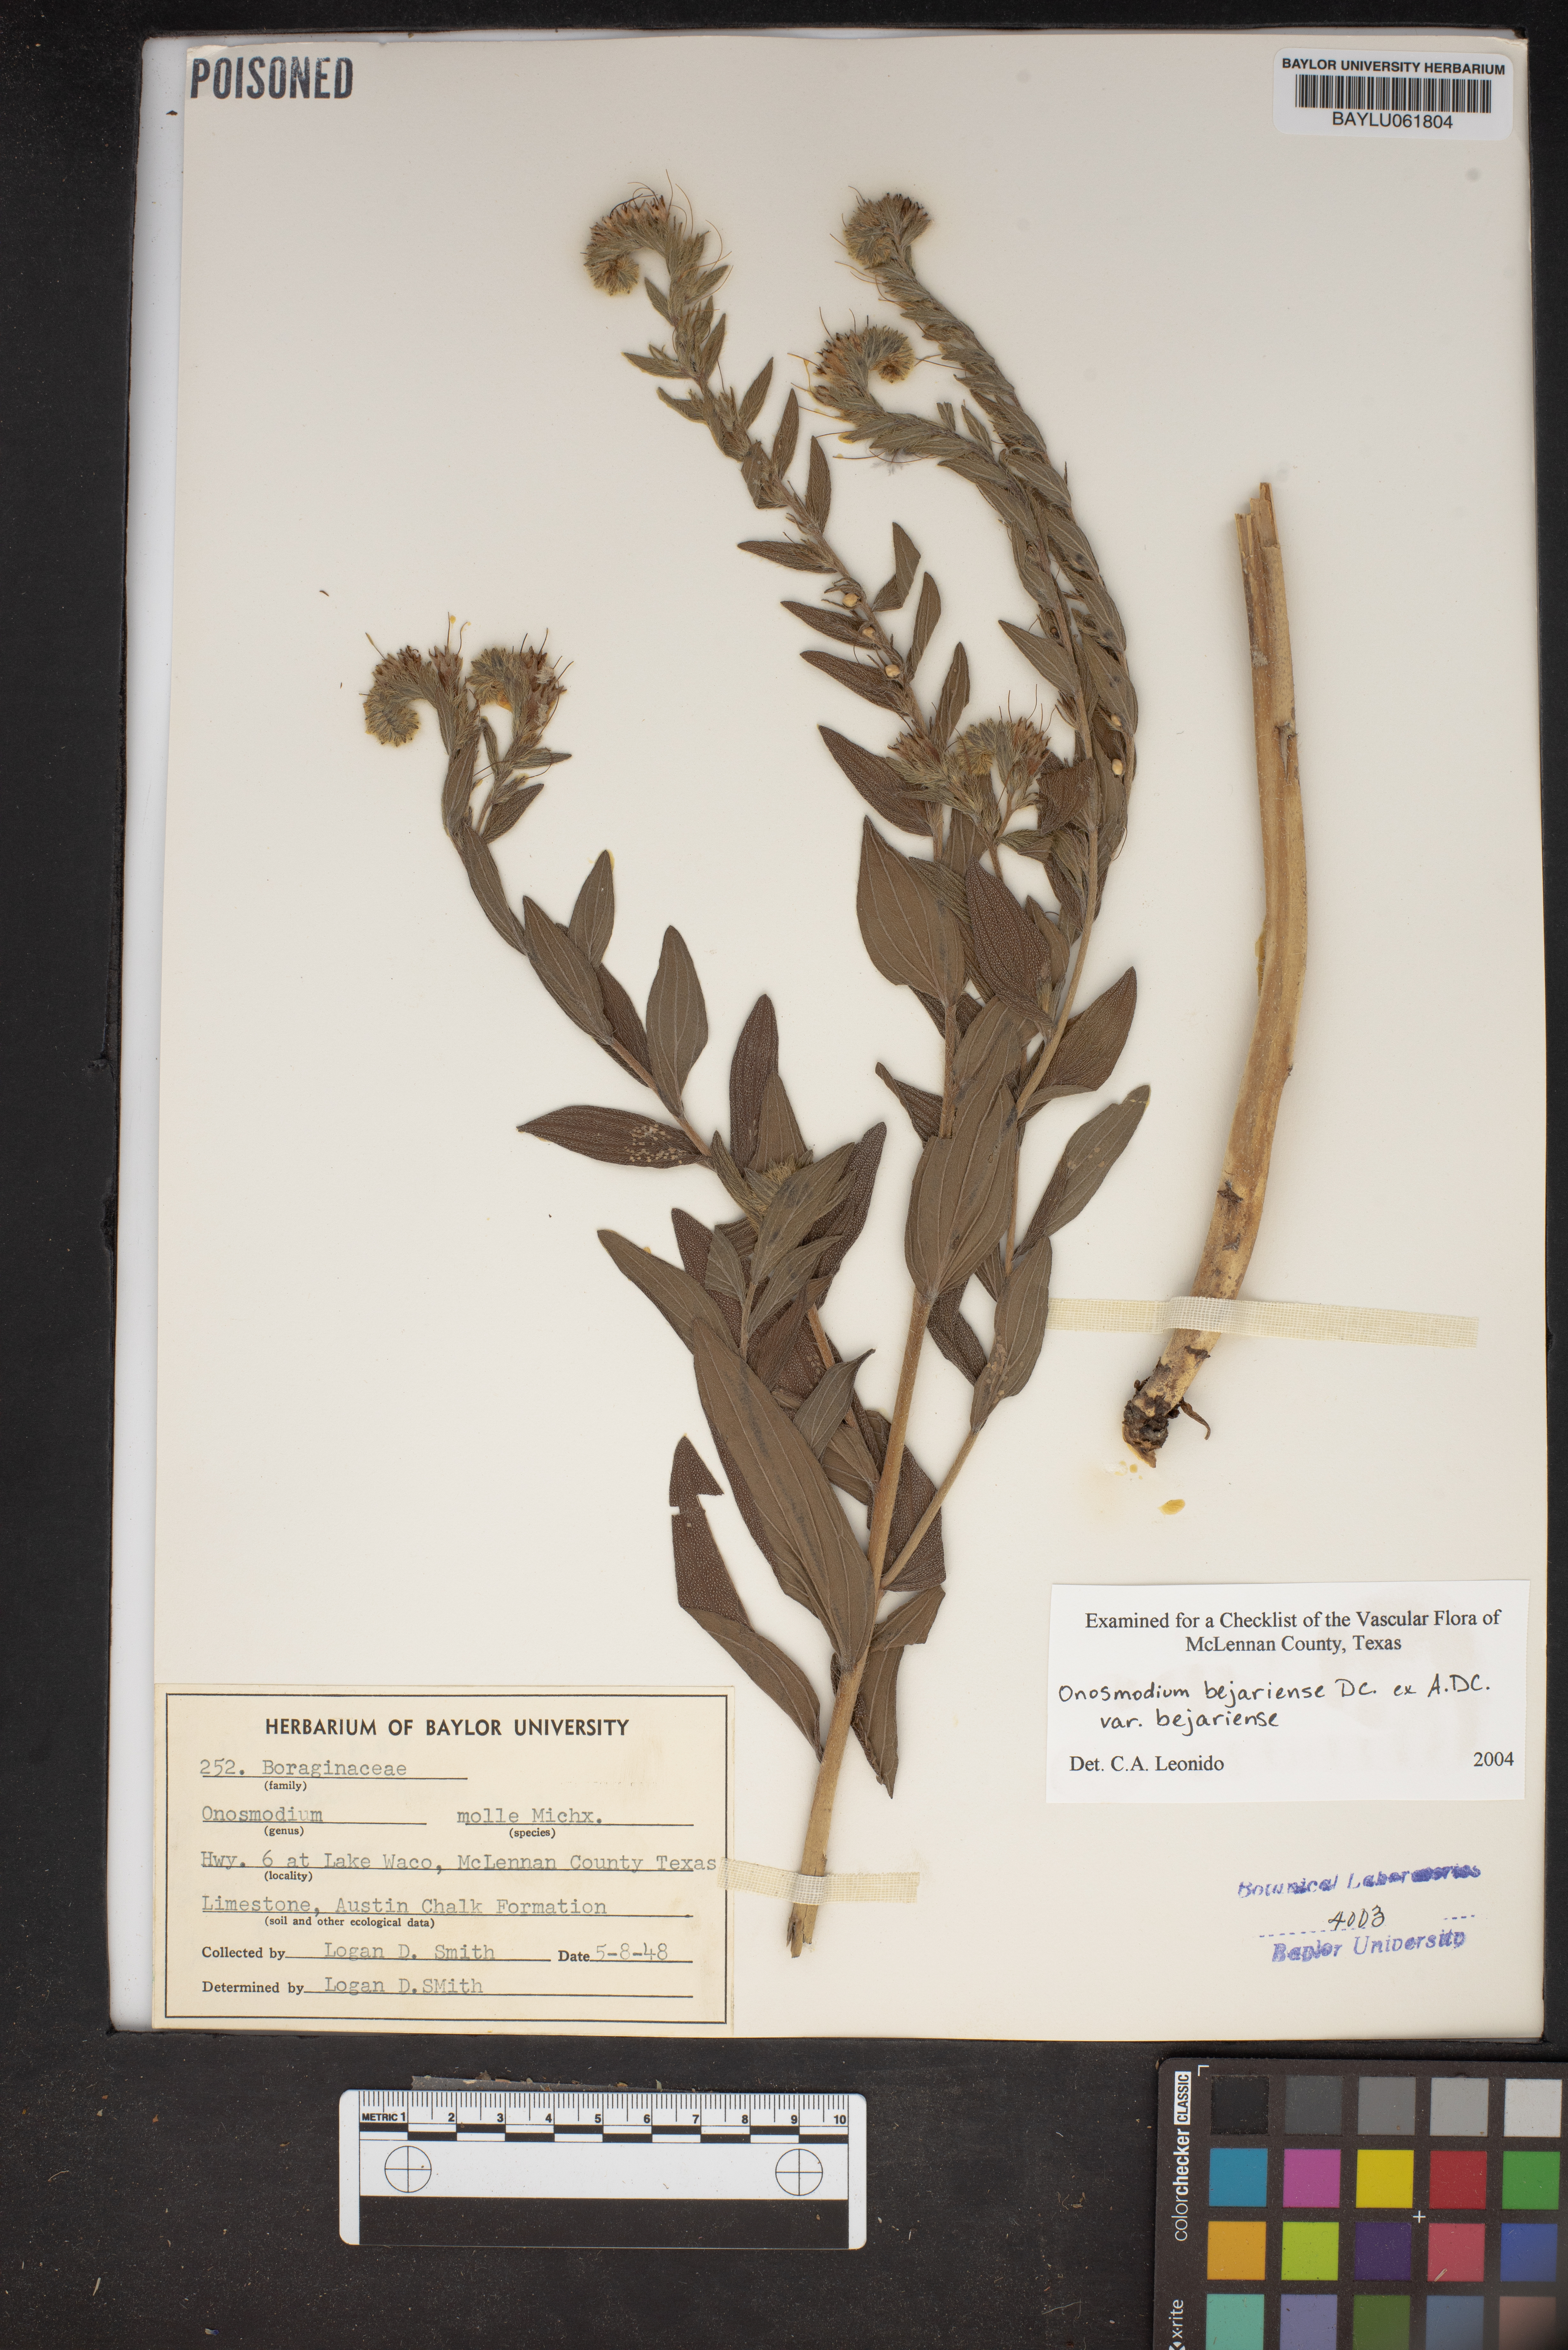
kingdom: Plantae
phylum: Tracheophyta
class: Magnoliopsida
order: Boraginales
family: Boraginaceae
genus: Lithospermum
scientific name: Lithospermum molle
